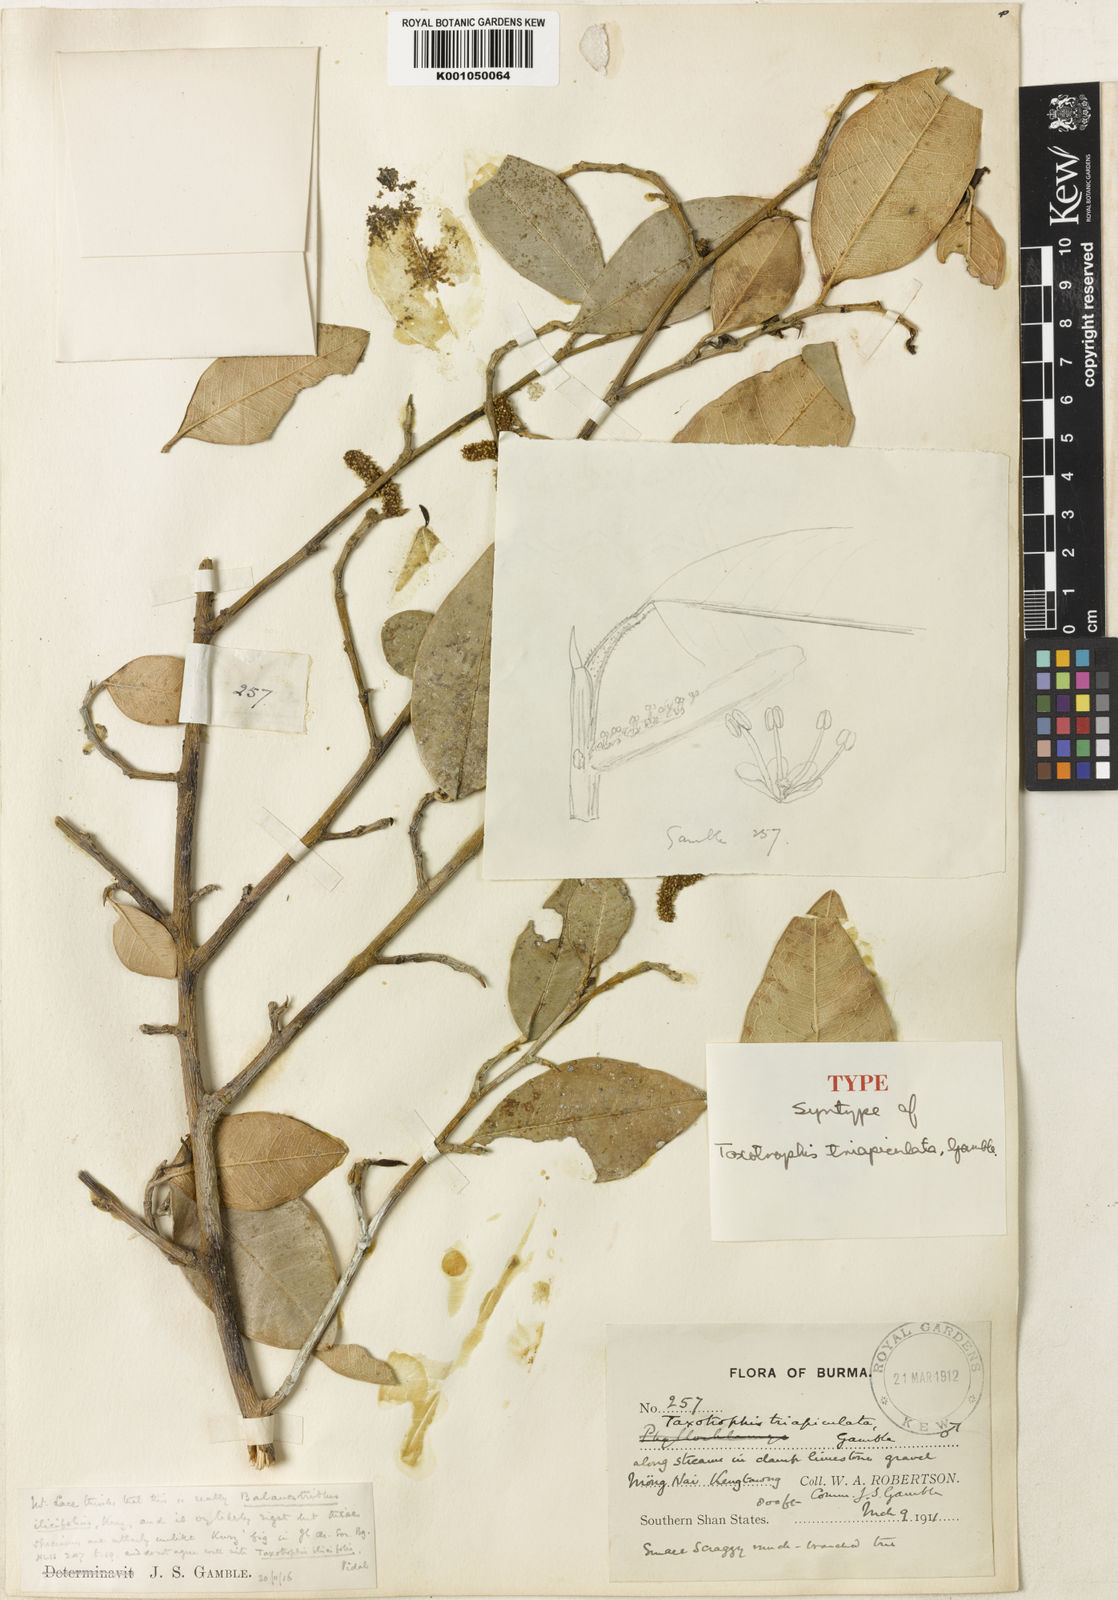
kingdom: Plantae
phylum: Tracheophyta
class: Magnoliopsida
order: Rosales
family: Moraceae
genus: Taxotrophis
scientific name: Taxotrophis ilicifolia
